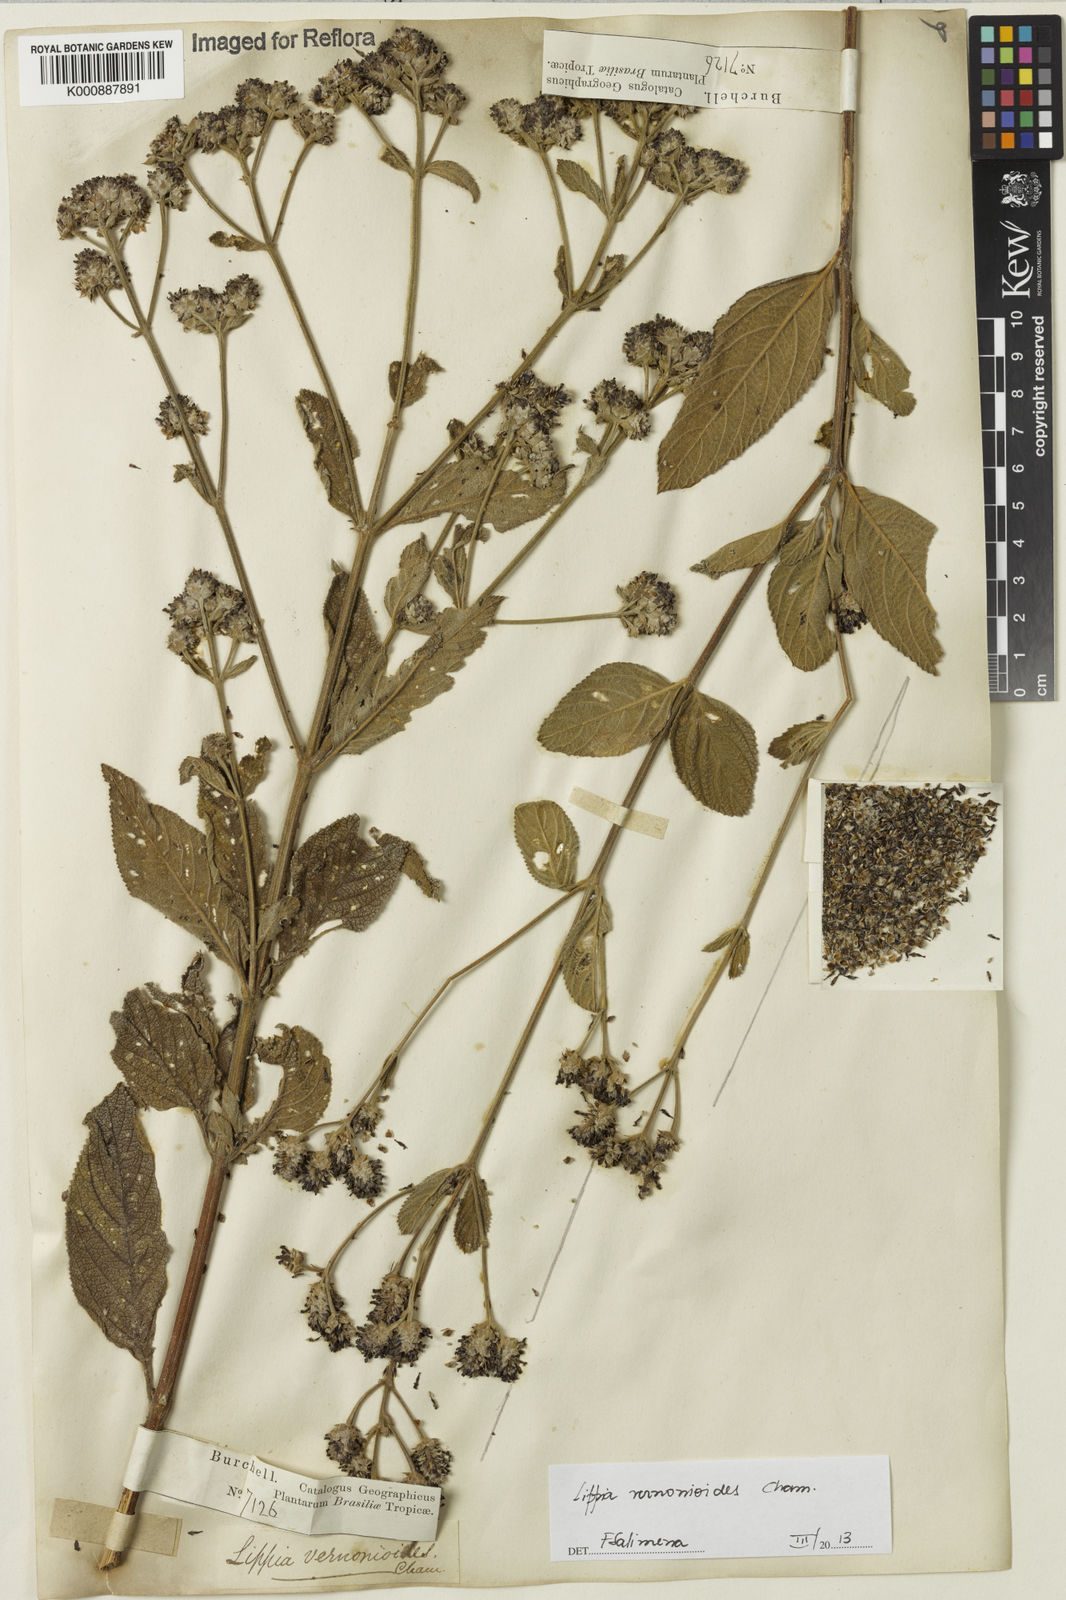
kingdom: Plantae
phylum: Tracheophyta
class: Magnoliopsida
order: Lamiales
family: Verbenaceae
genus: Lippia
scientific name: Lippia vernonioides
